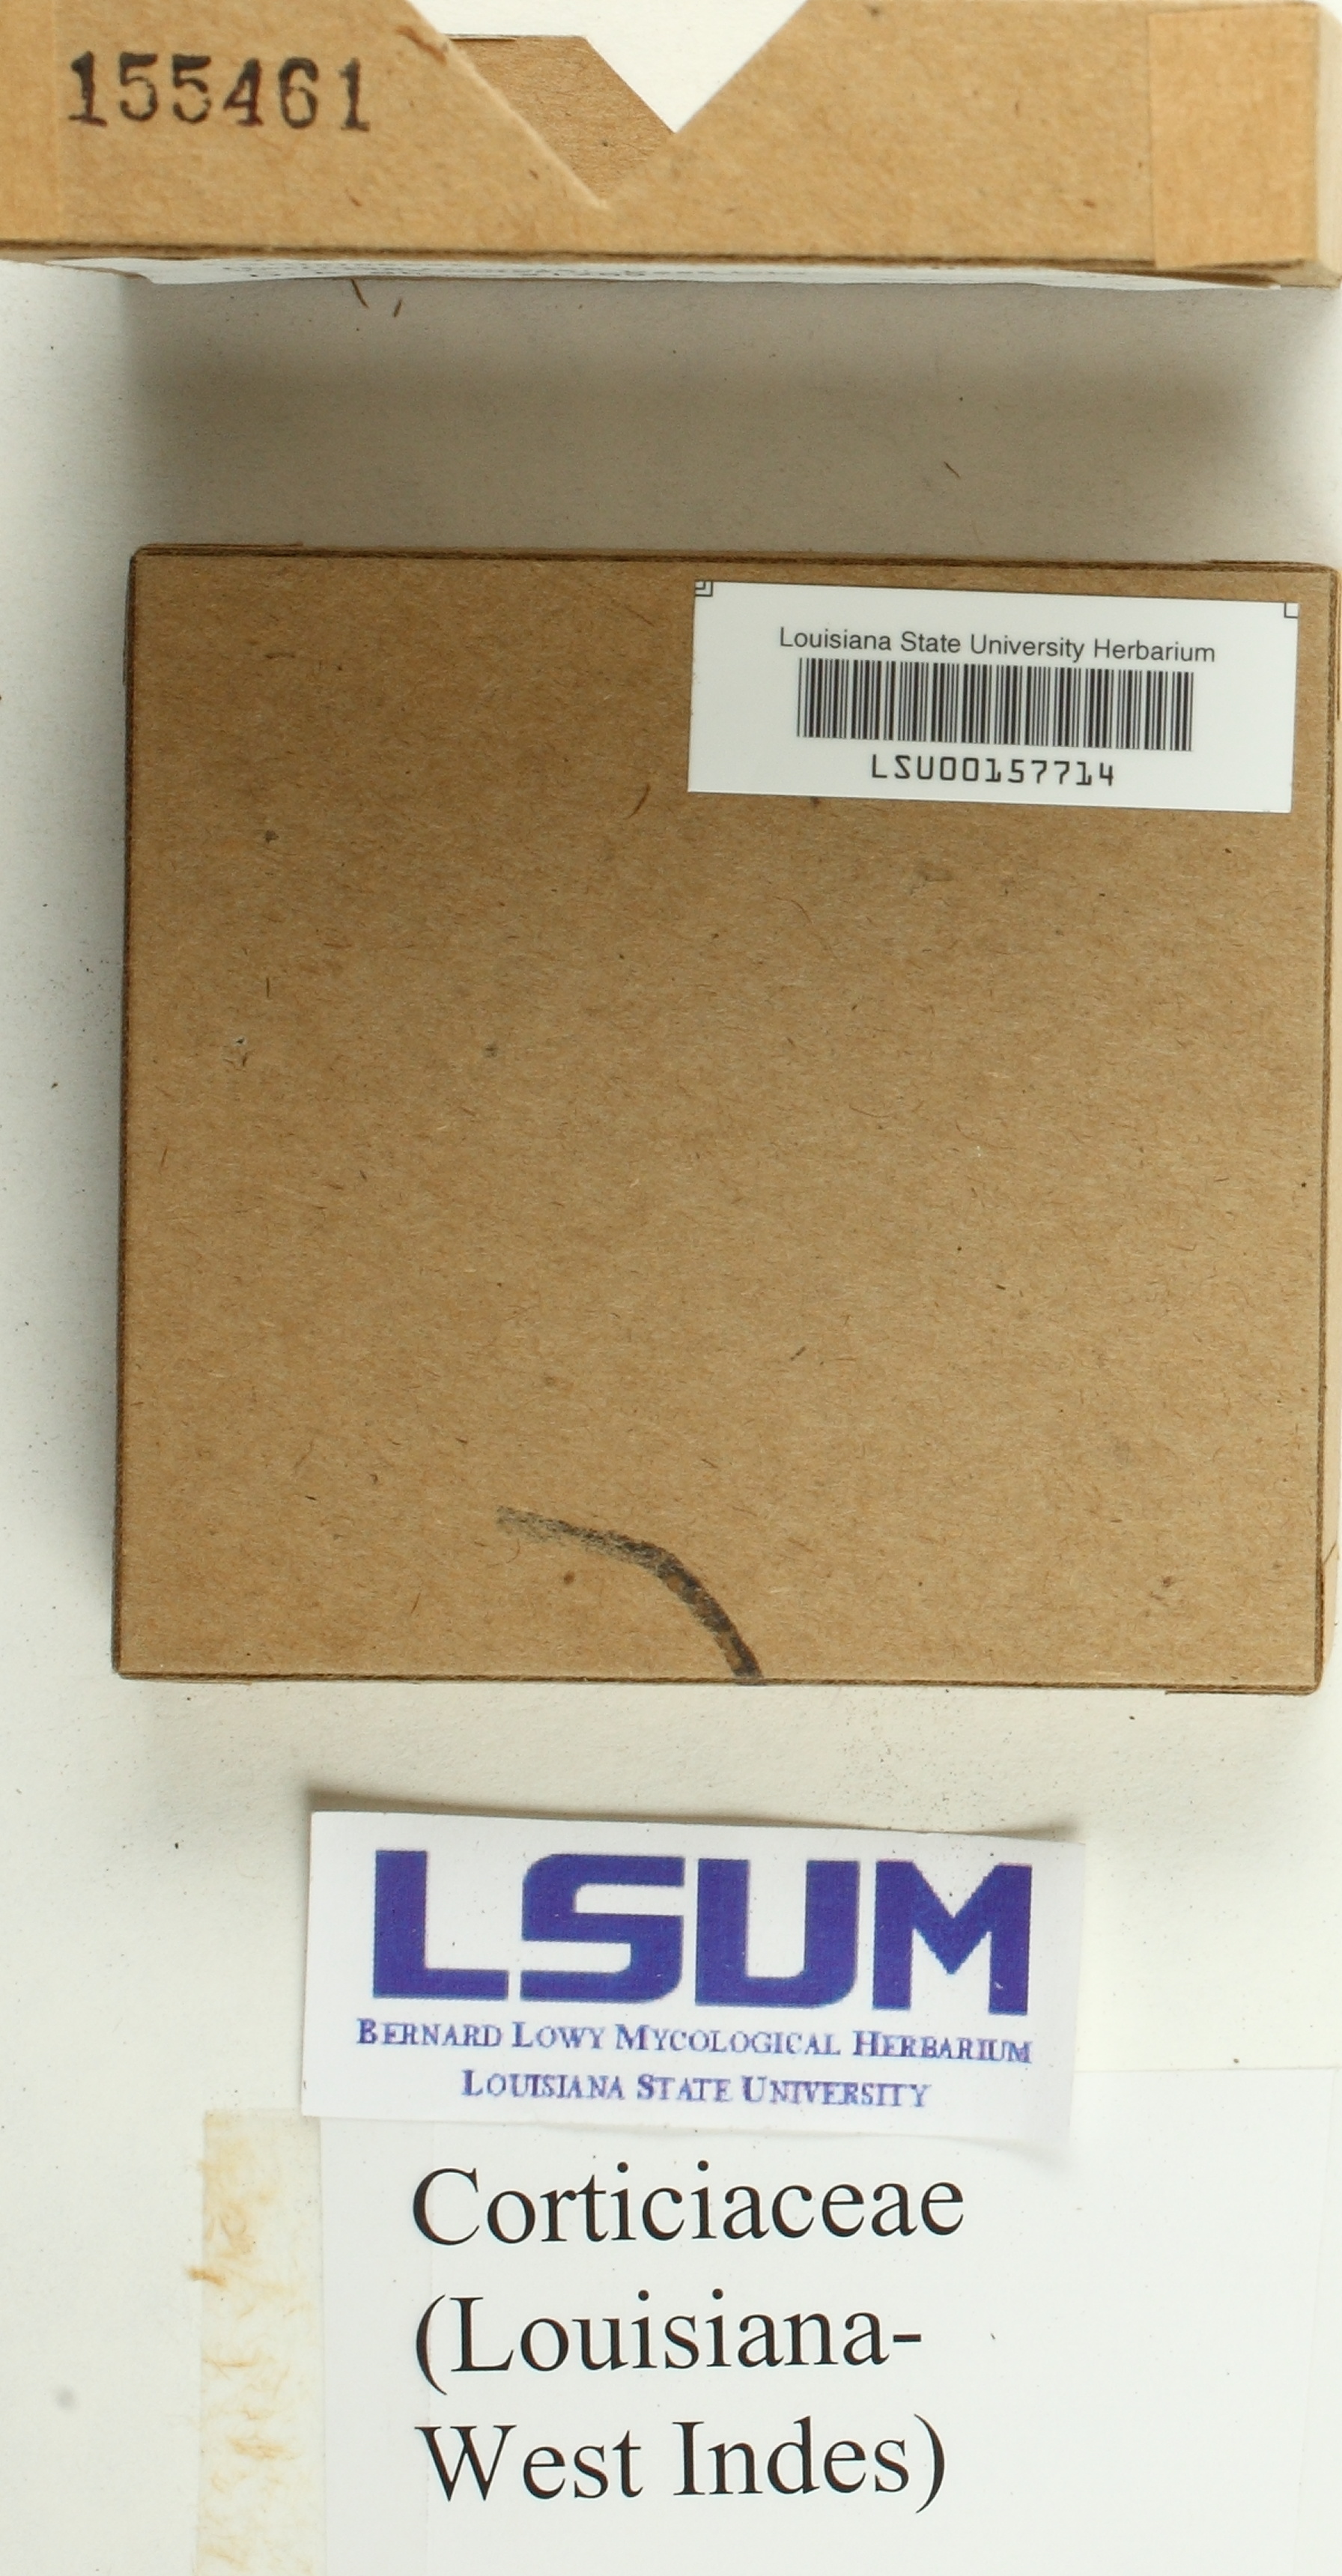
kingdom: Fungi
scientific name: Fungi
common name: Fungi
